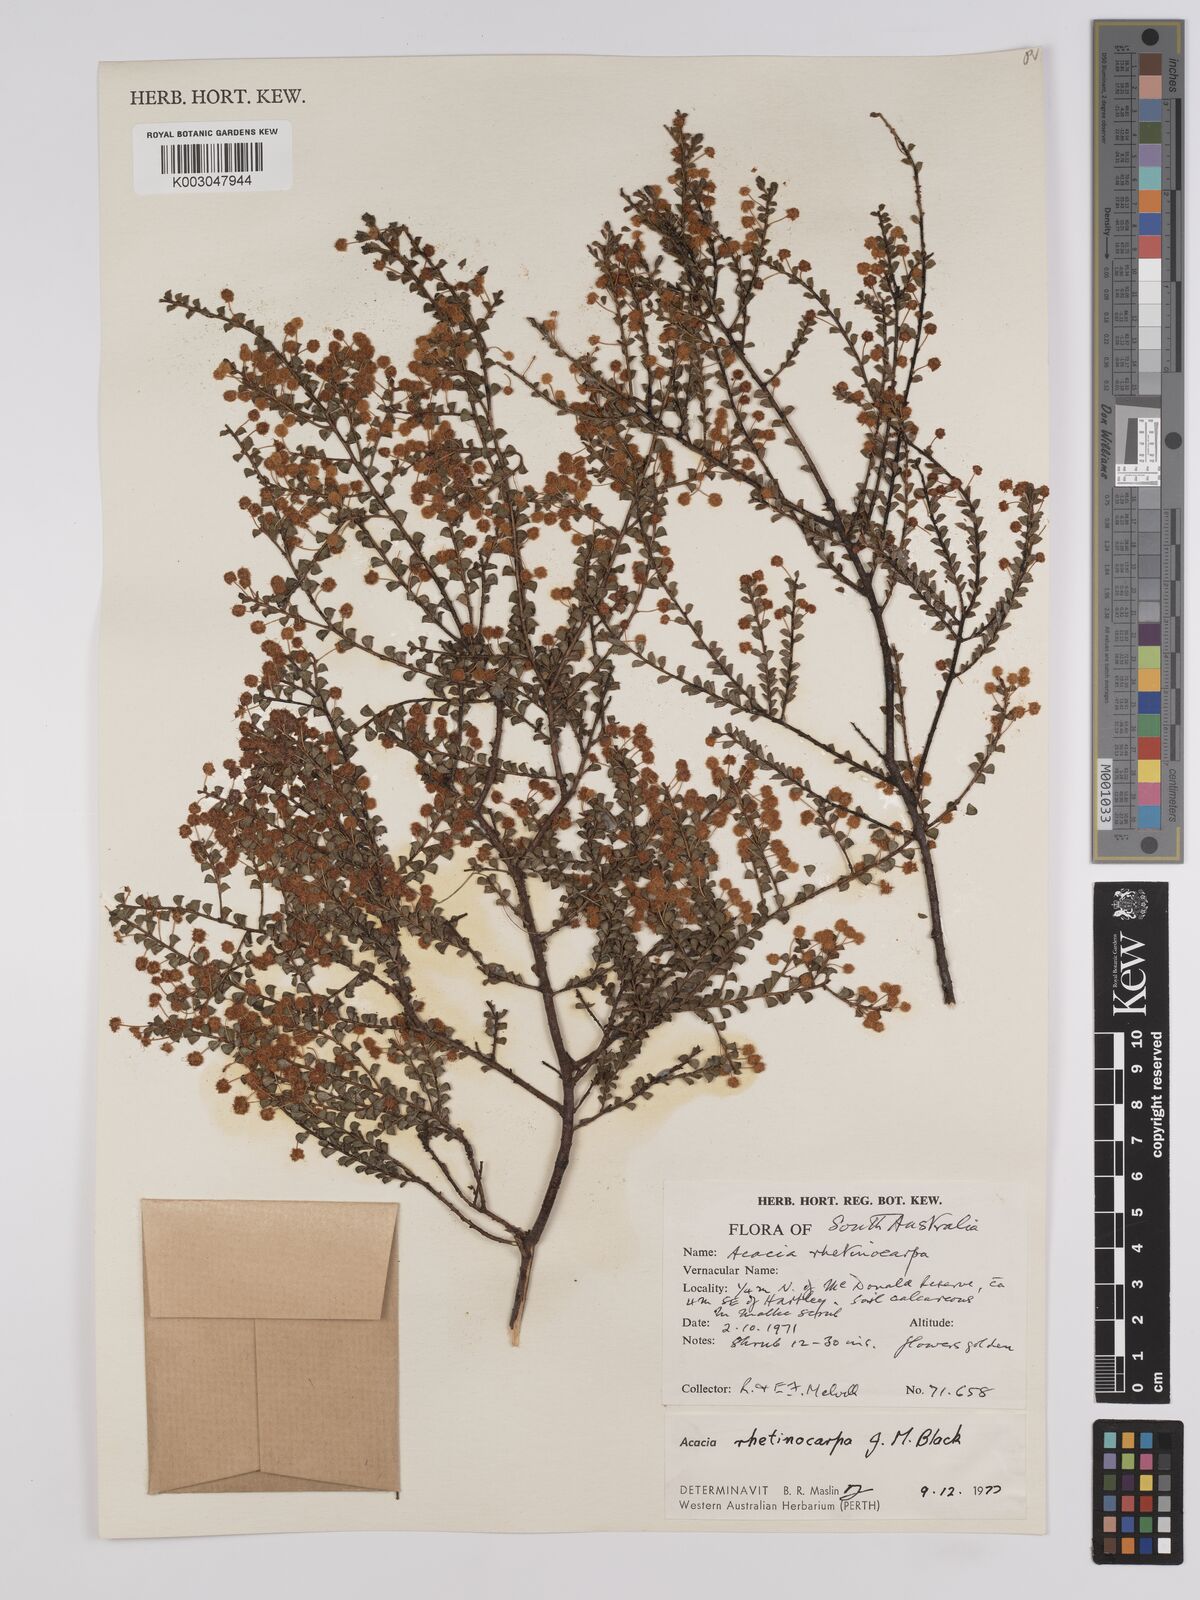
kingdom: Plantae
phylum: Tracheophyta
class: Magnoliopsida
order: Fabales
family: Fabaceae
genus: Acacia
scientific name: Acacia brachyclada
